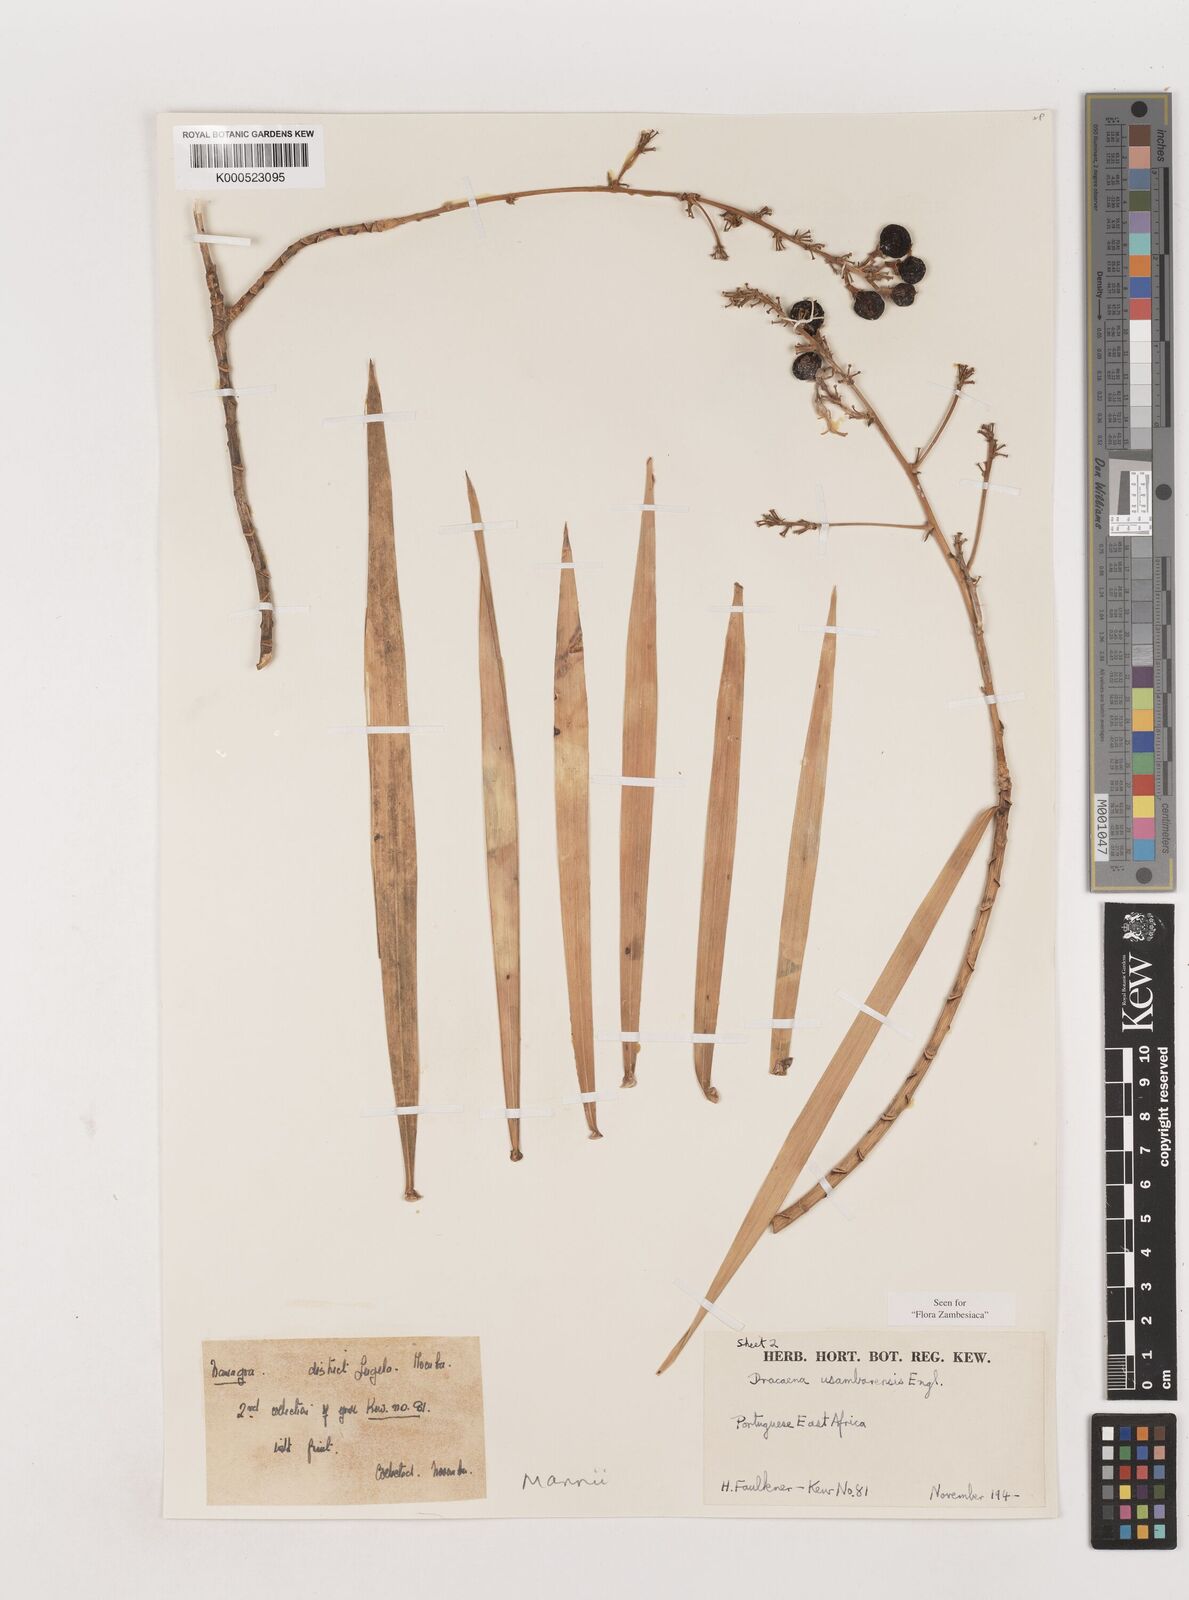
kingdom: Plantae
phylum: Tracheophyta
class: Liliopsida
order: Asparagales
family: Asparagaceae
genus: Dracaena
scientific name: Dracaena mannii
